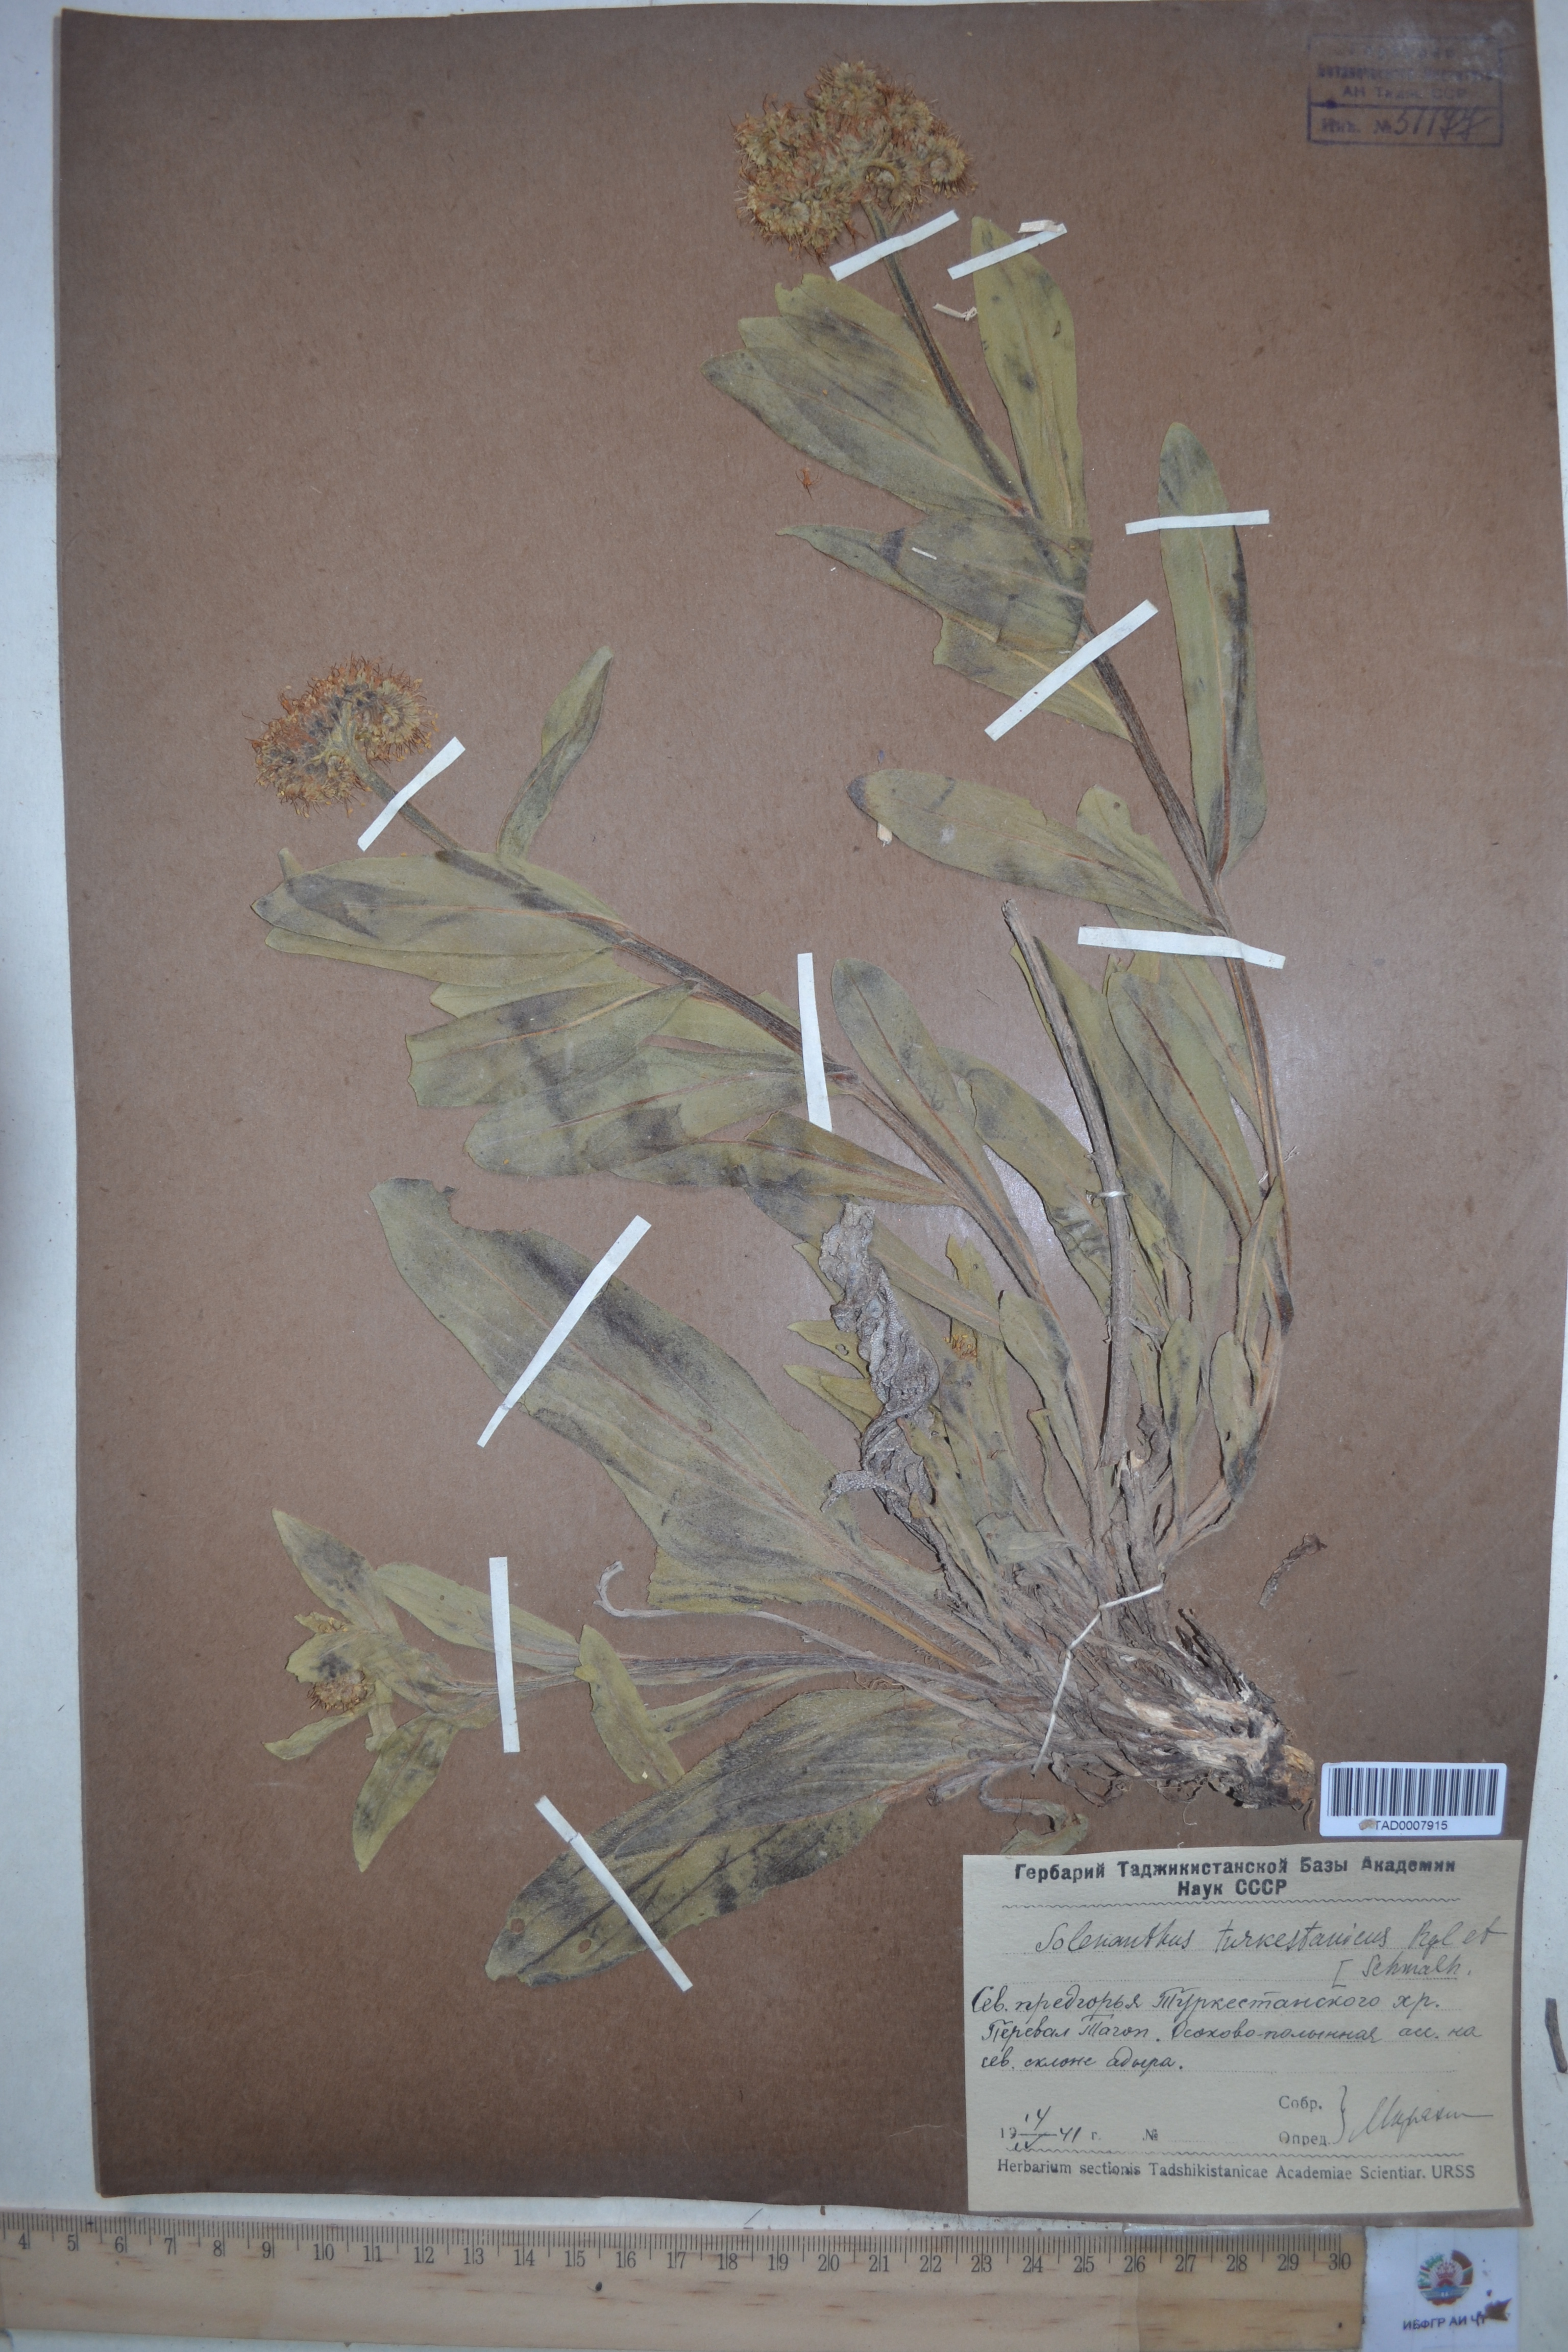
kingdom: Plantae
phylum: Tracheophyta
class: Magnoliopsida
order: Boraginales
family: Boraginaceae
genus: Solenanthus
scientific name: Solenanthus turkestanicus
